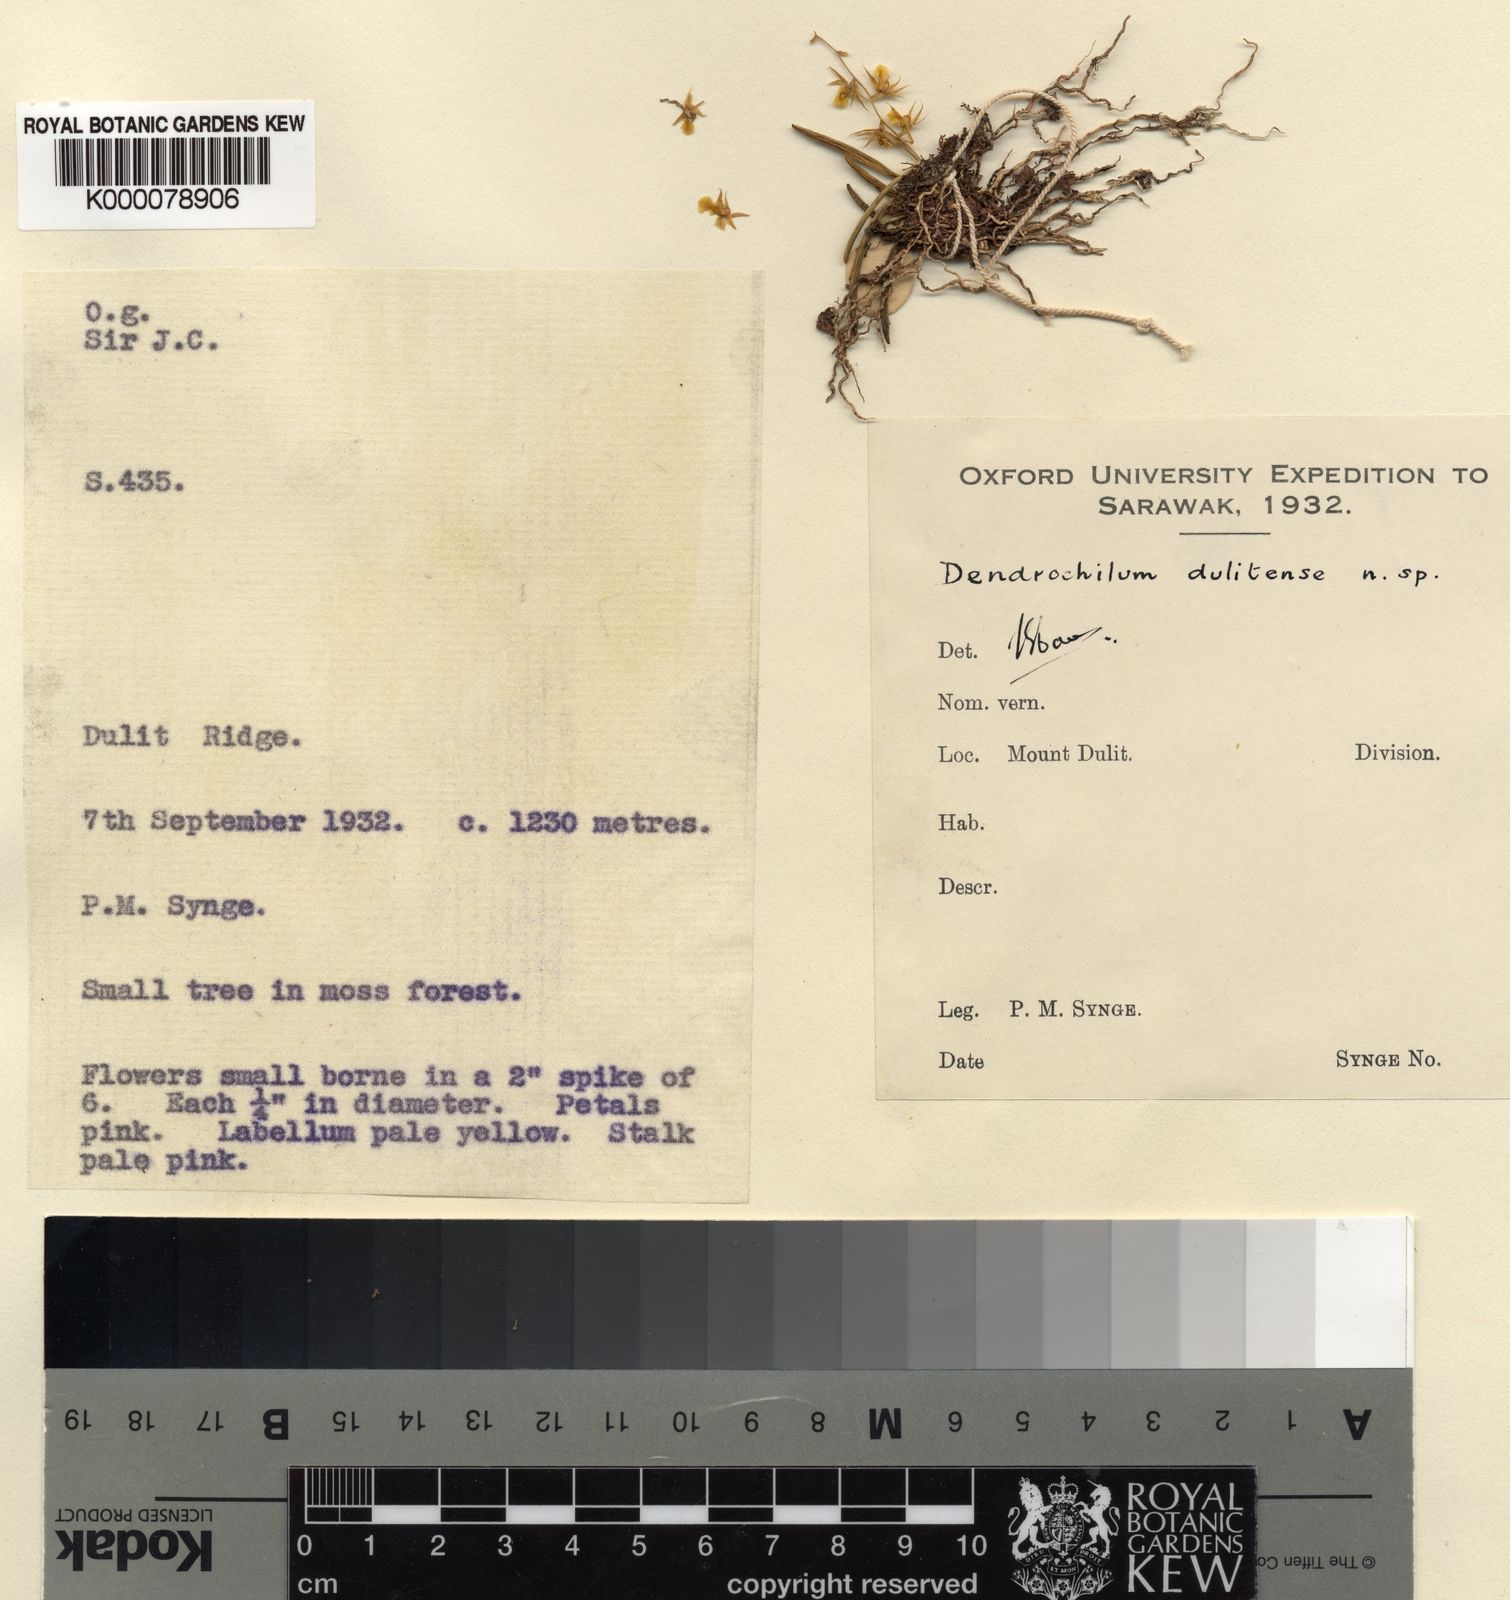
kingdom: Plantae
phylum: Tracheophyta
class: Liliopsida
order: Asparagales
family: Orchidaceae
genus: Coelogyne
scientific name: Coelogyne syngei
